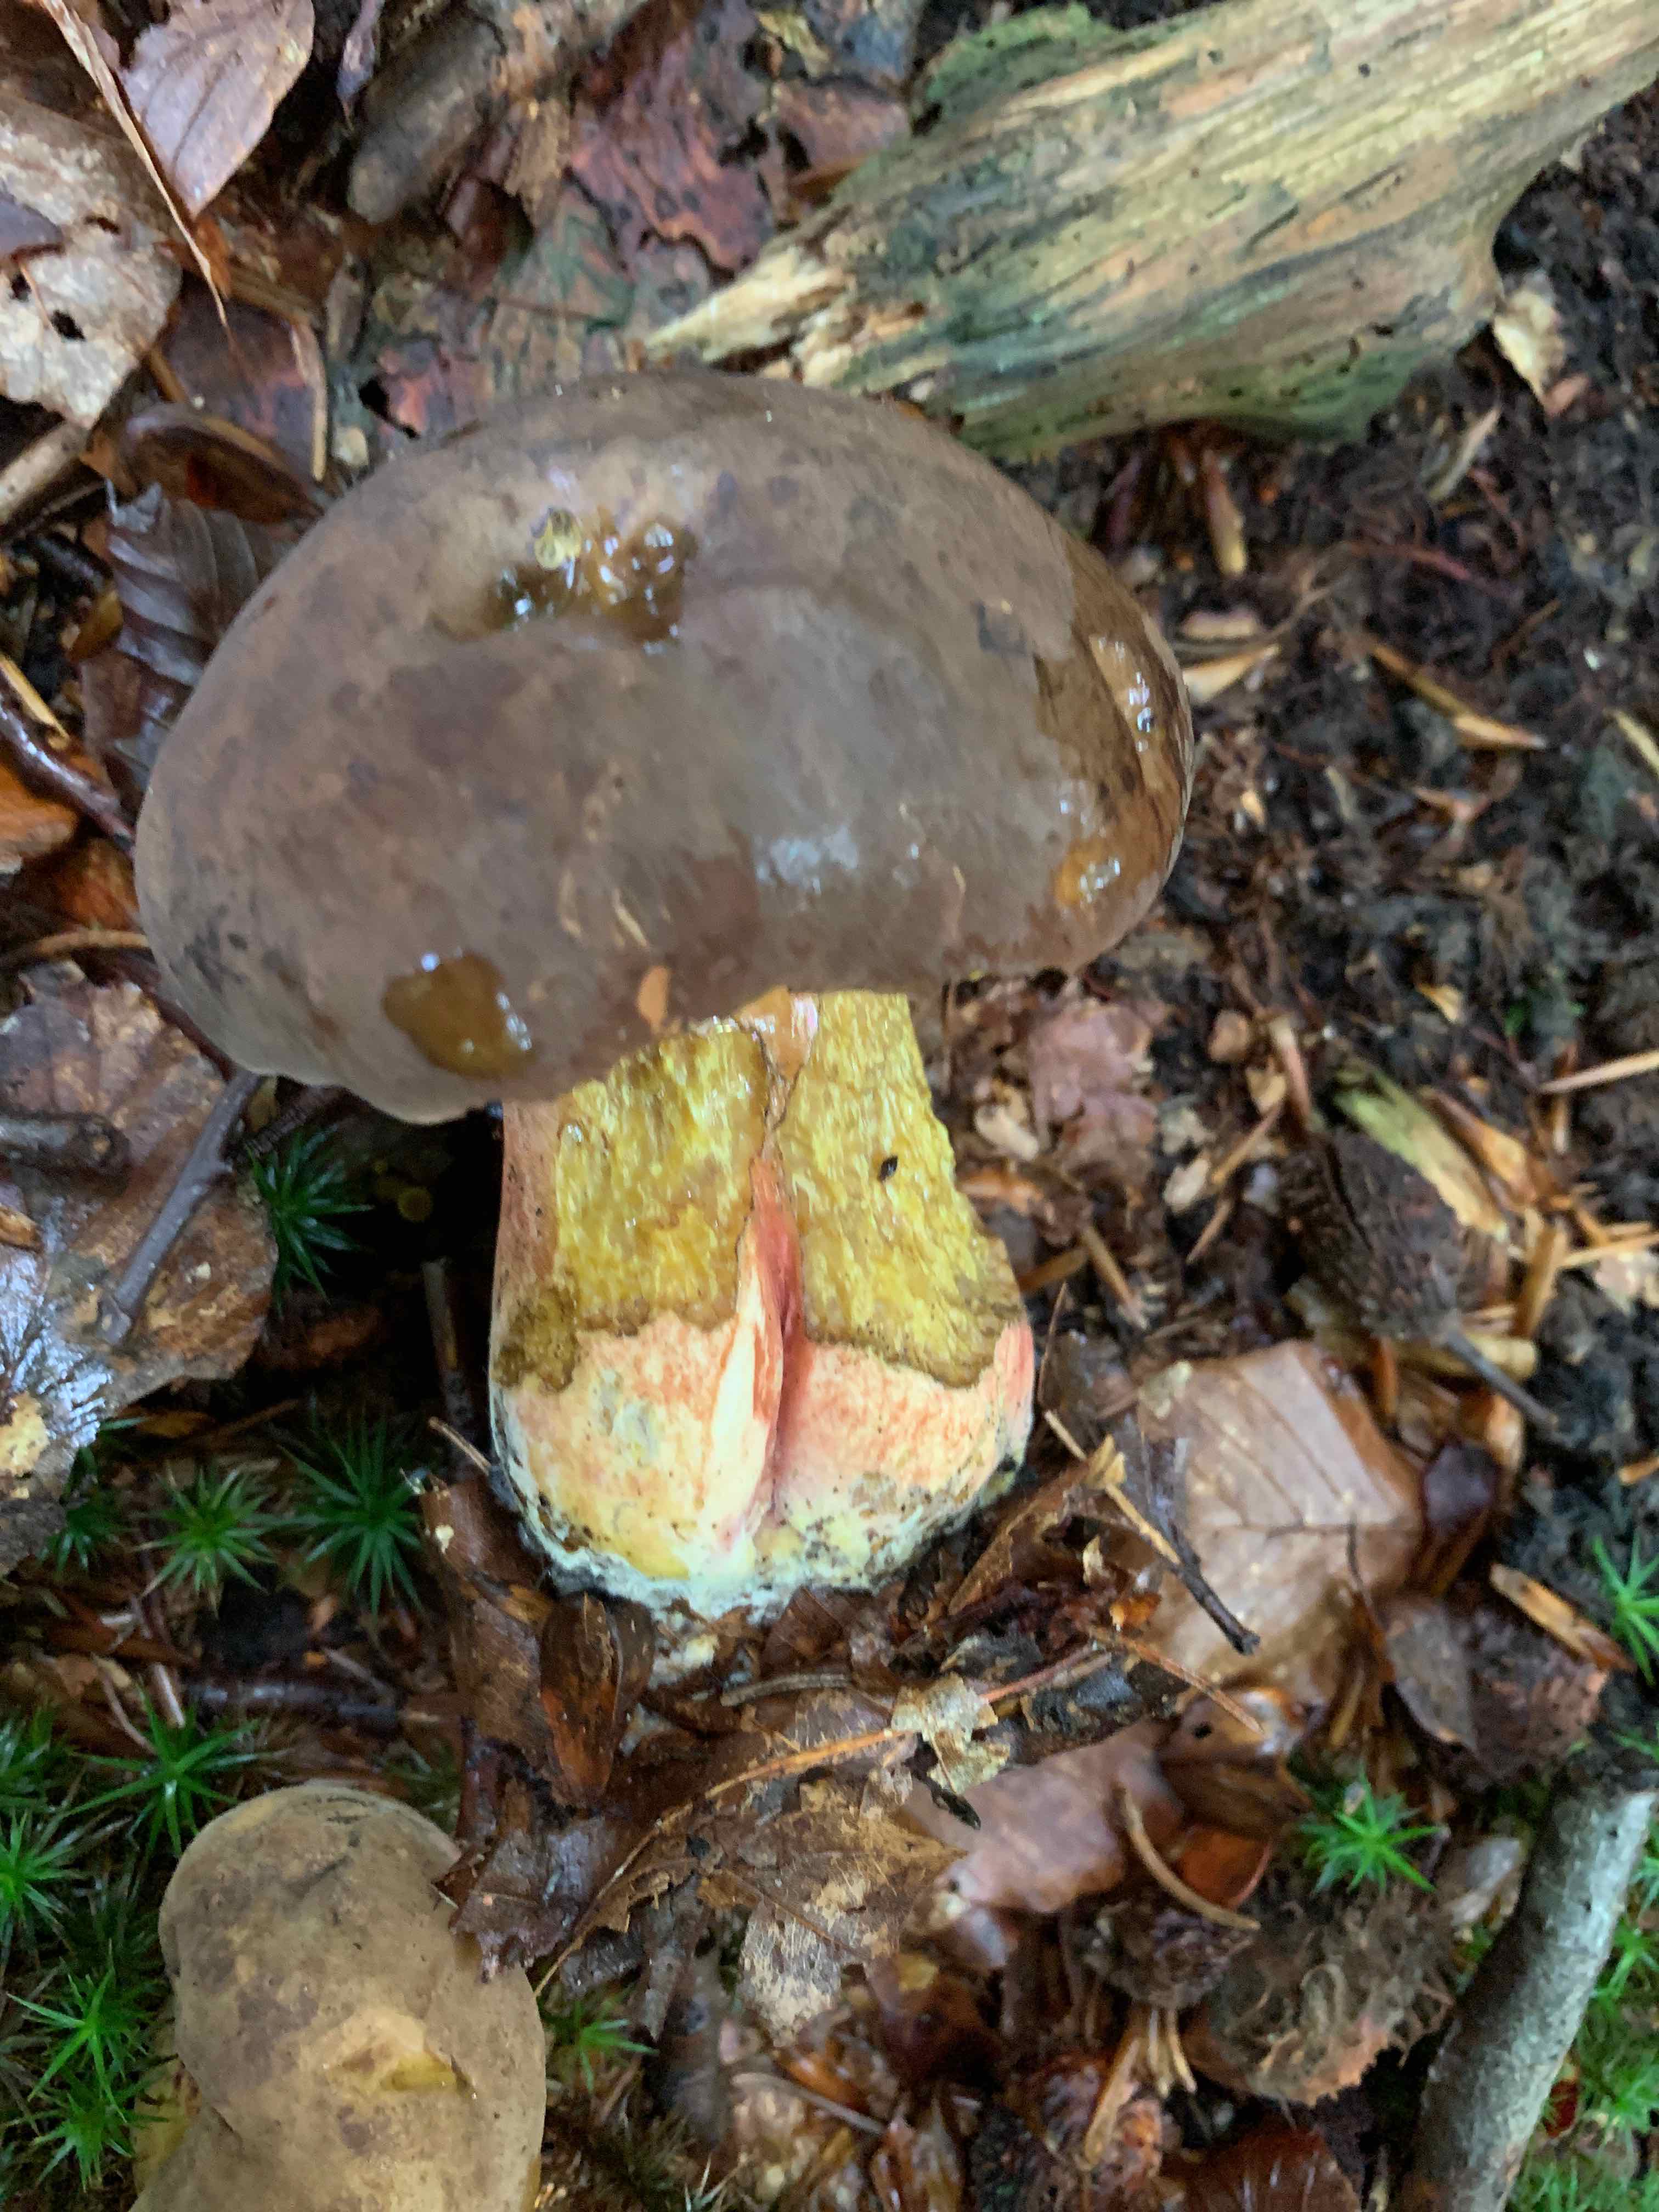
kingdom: Fungi
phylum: Basidiomycota
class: Agaricomycetes
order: Boletales
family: Boletaceae
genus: Neoboletus
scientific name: Neoboletus erythropus
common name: punktstokket indigorørhat
